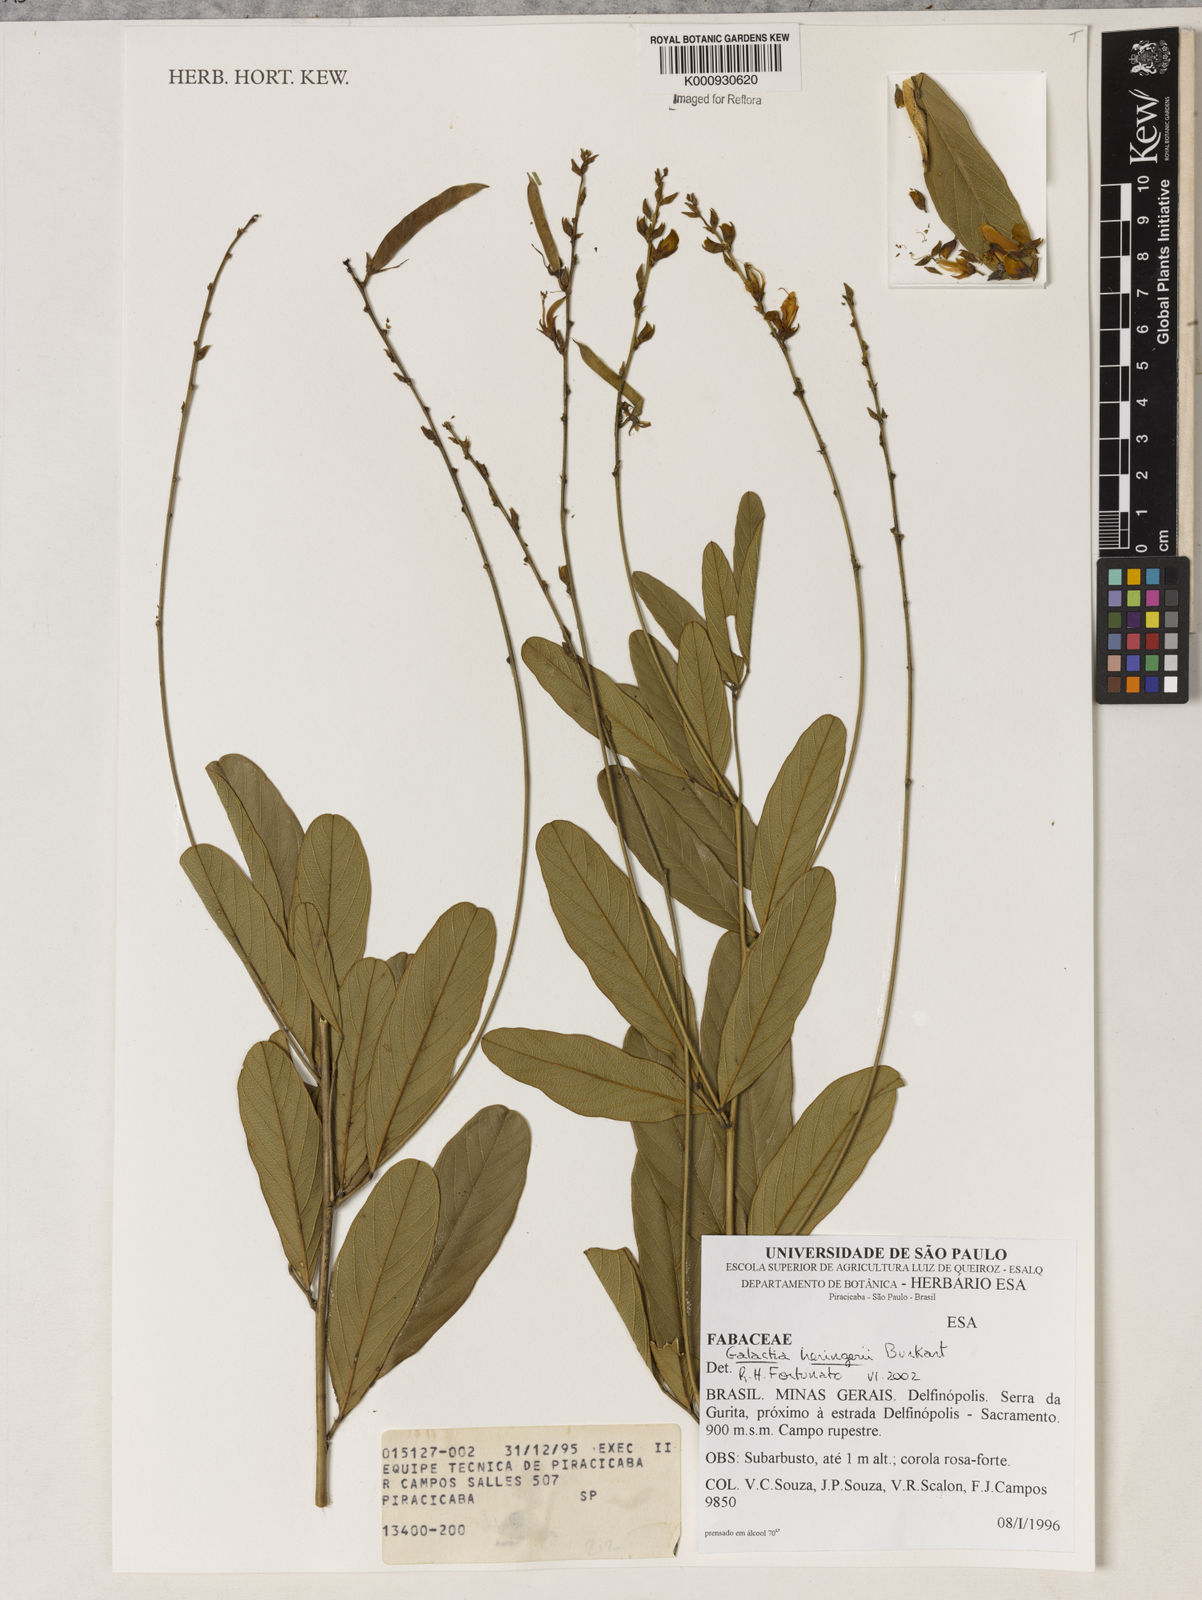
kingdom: Plantae
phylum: Tracheophyta
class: Magnoliopsida
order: Fabales
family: Fabaceae
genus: Cerradicola
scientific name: Cerradicola heringeri
